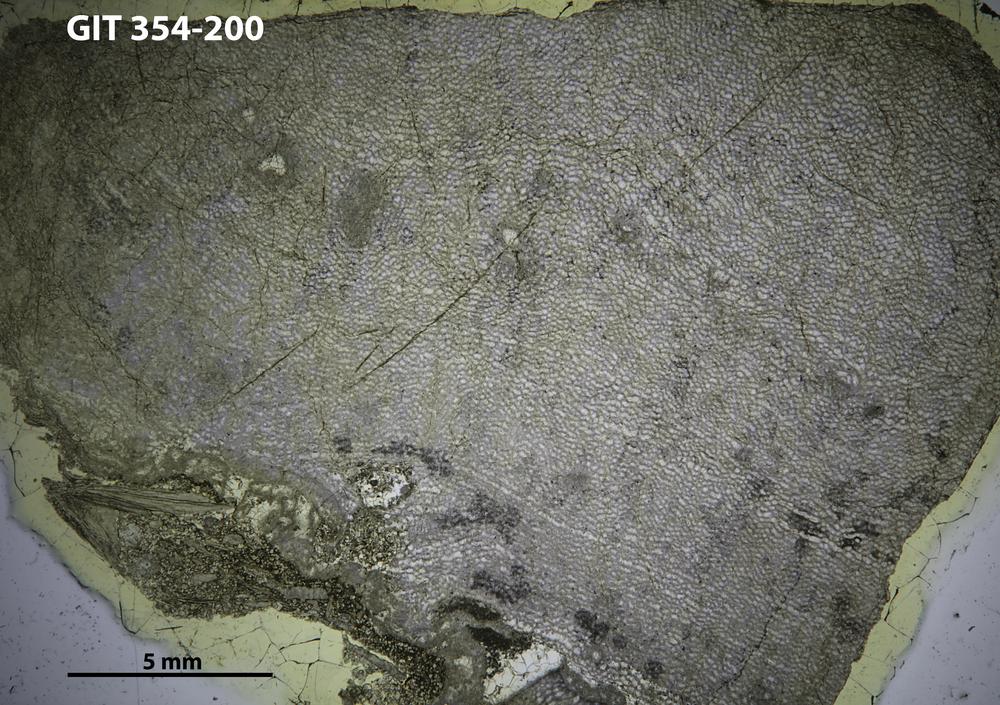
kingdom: Animalia
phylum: Porifera
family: Ecclimadictyidae
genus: Ecclimadictyon
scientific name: Ecclimadictyon microfastigiatum
